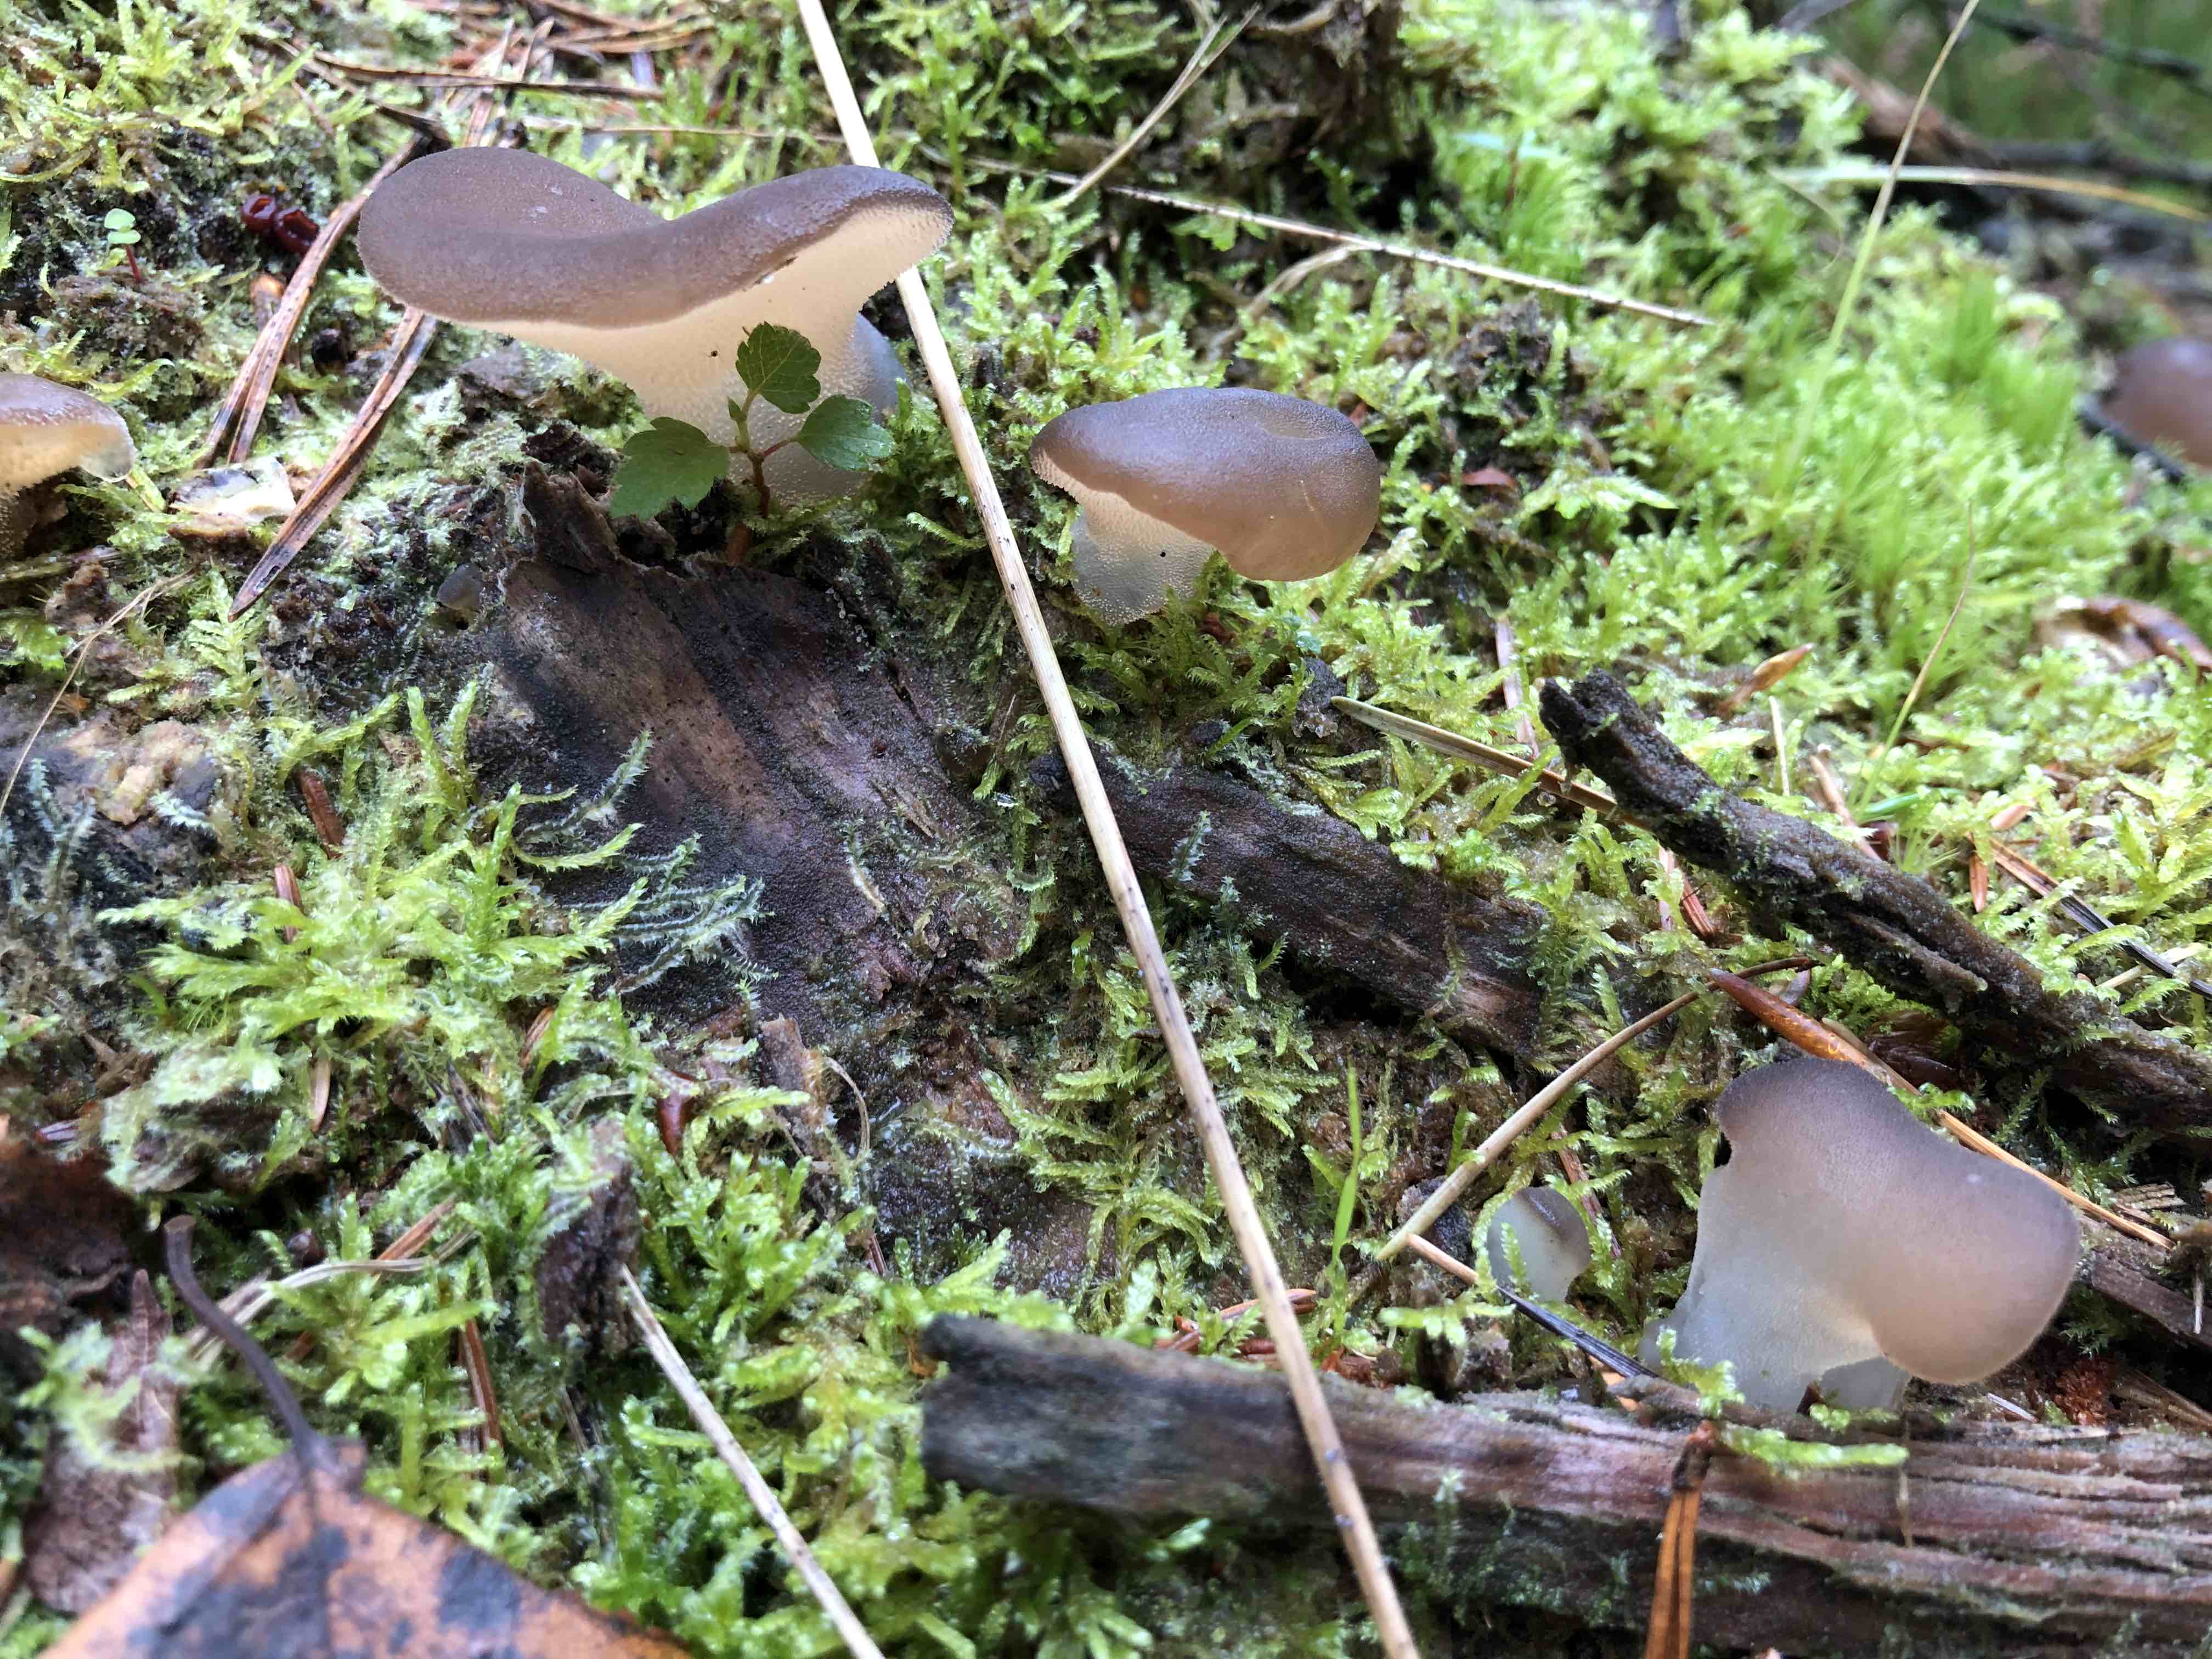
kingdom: Fungi
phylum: Basidiomycota
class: Agaricomycetes
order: Auriculariales
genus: Pseudohydnum
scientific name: Pseudohydnum gelatinosum
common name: bævretand
